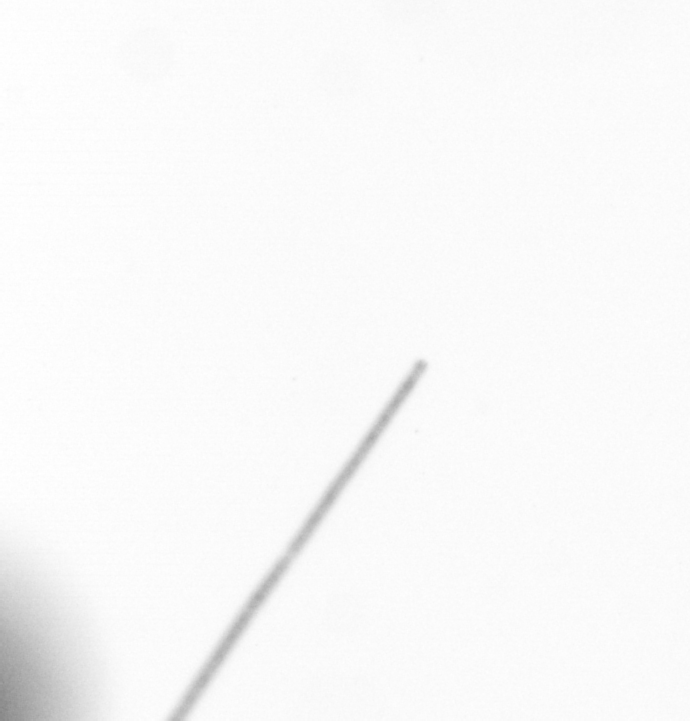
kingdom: Chromista
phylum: Ochrophyta
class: Bacillariophyceae
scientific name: Bacillariophyceae
